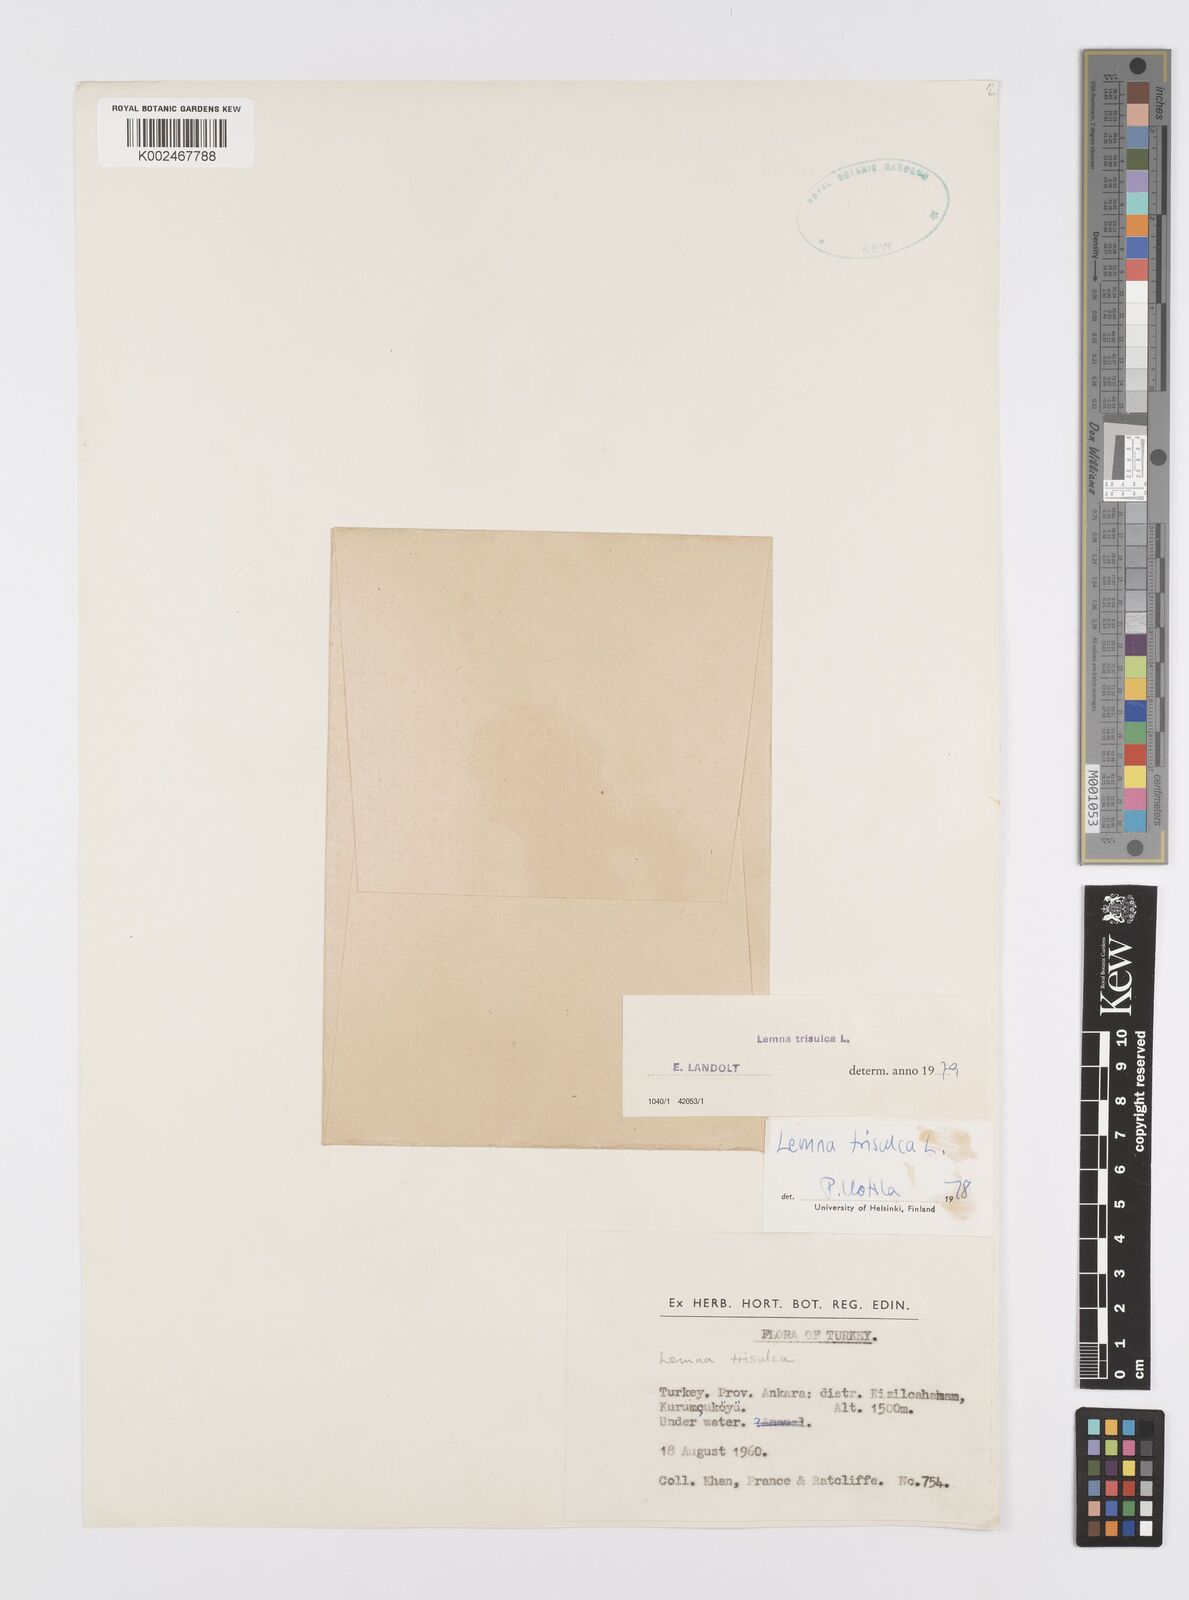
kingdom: Plantae
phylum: Tracheophyta
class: Liliopsida
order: Alismatales
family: Araceae
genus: Lemna
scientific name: Lemna trisulca
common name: Ivy-leaved duckweed
